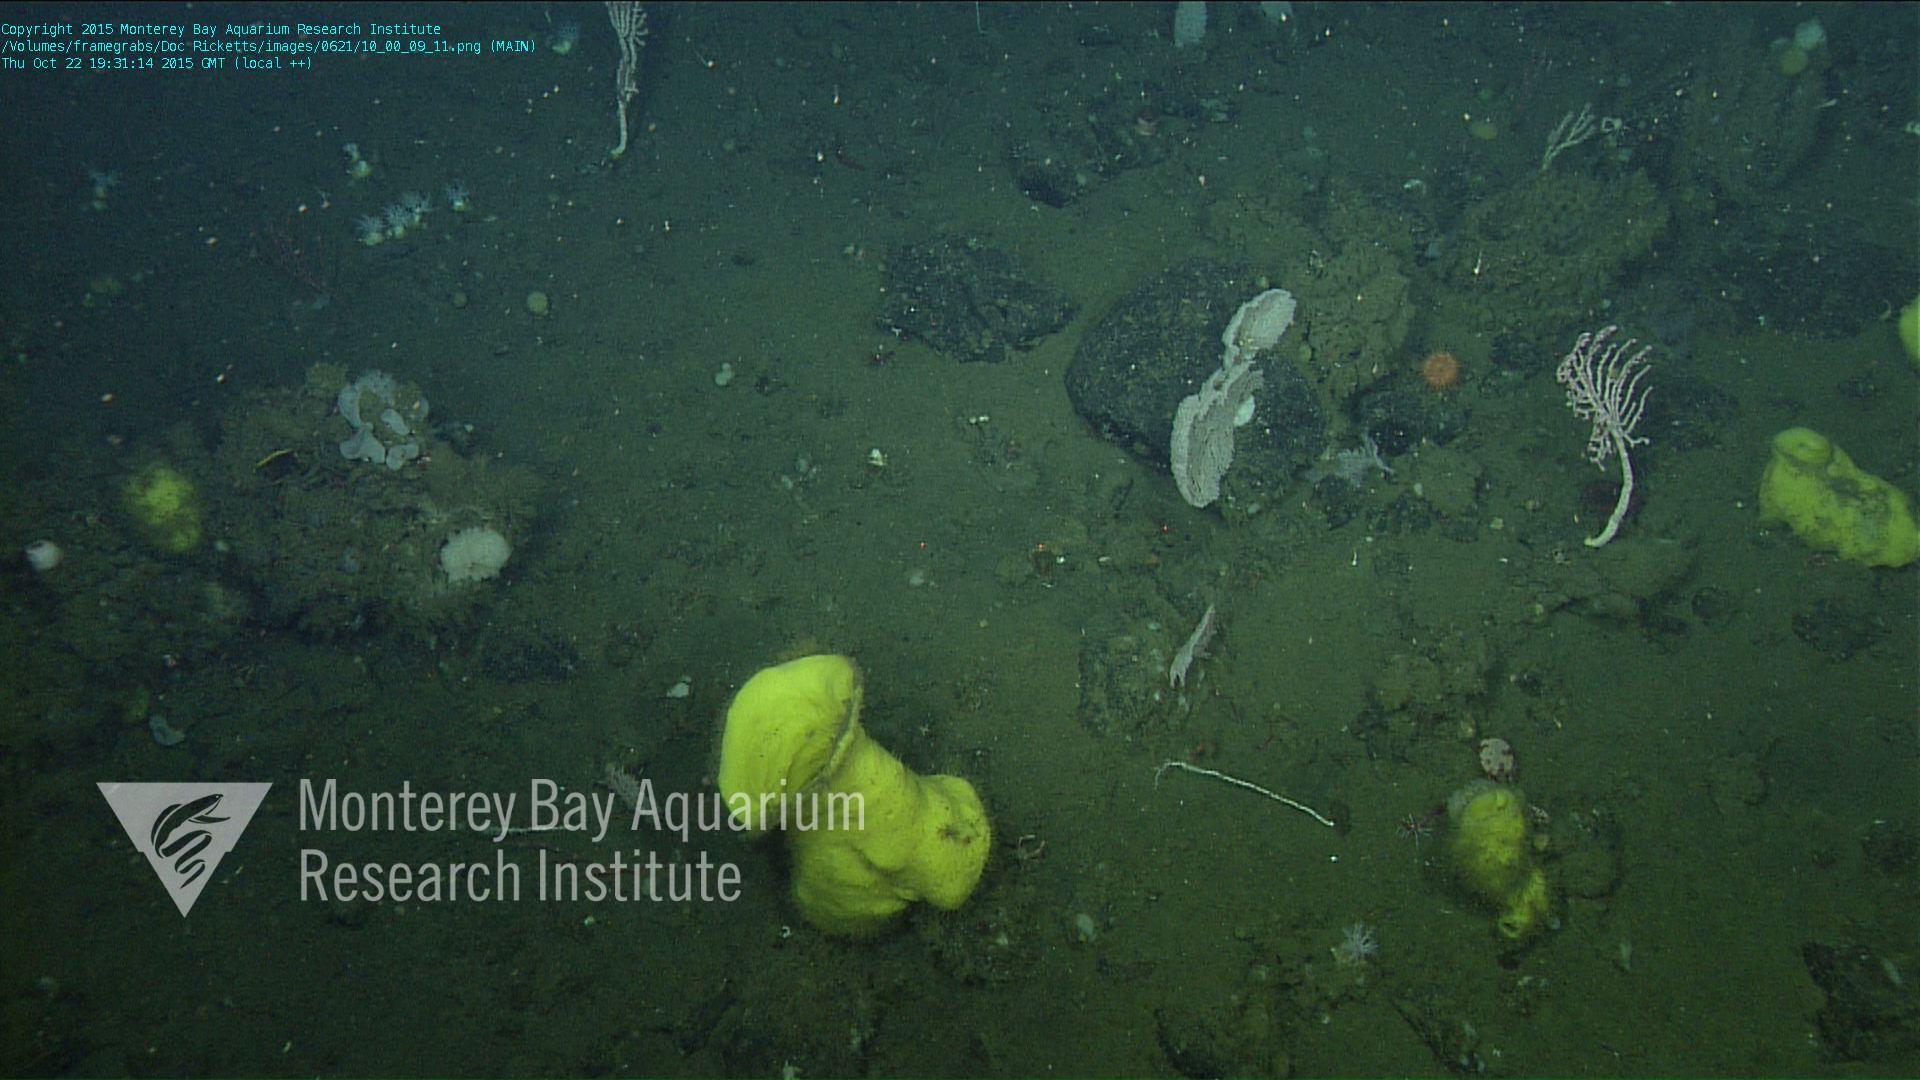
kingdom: Animalia
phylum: Cnidaria
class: Anthozoa
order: Scleralcyonacea
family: Coralliidae
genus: Sibogagorgia
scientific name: Sibogagorgia cauliflora
